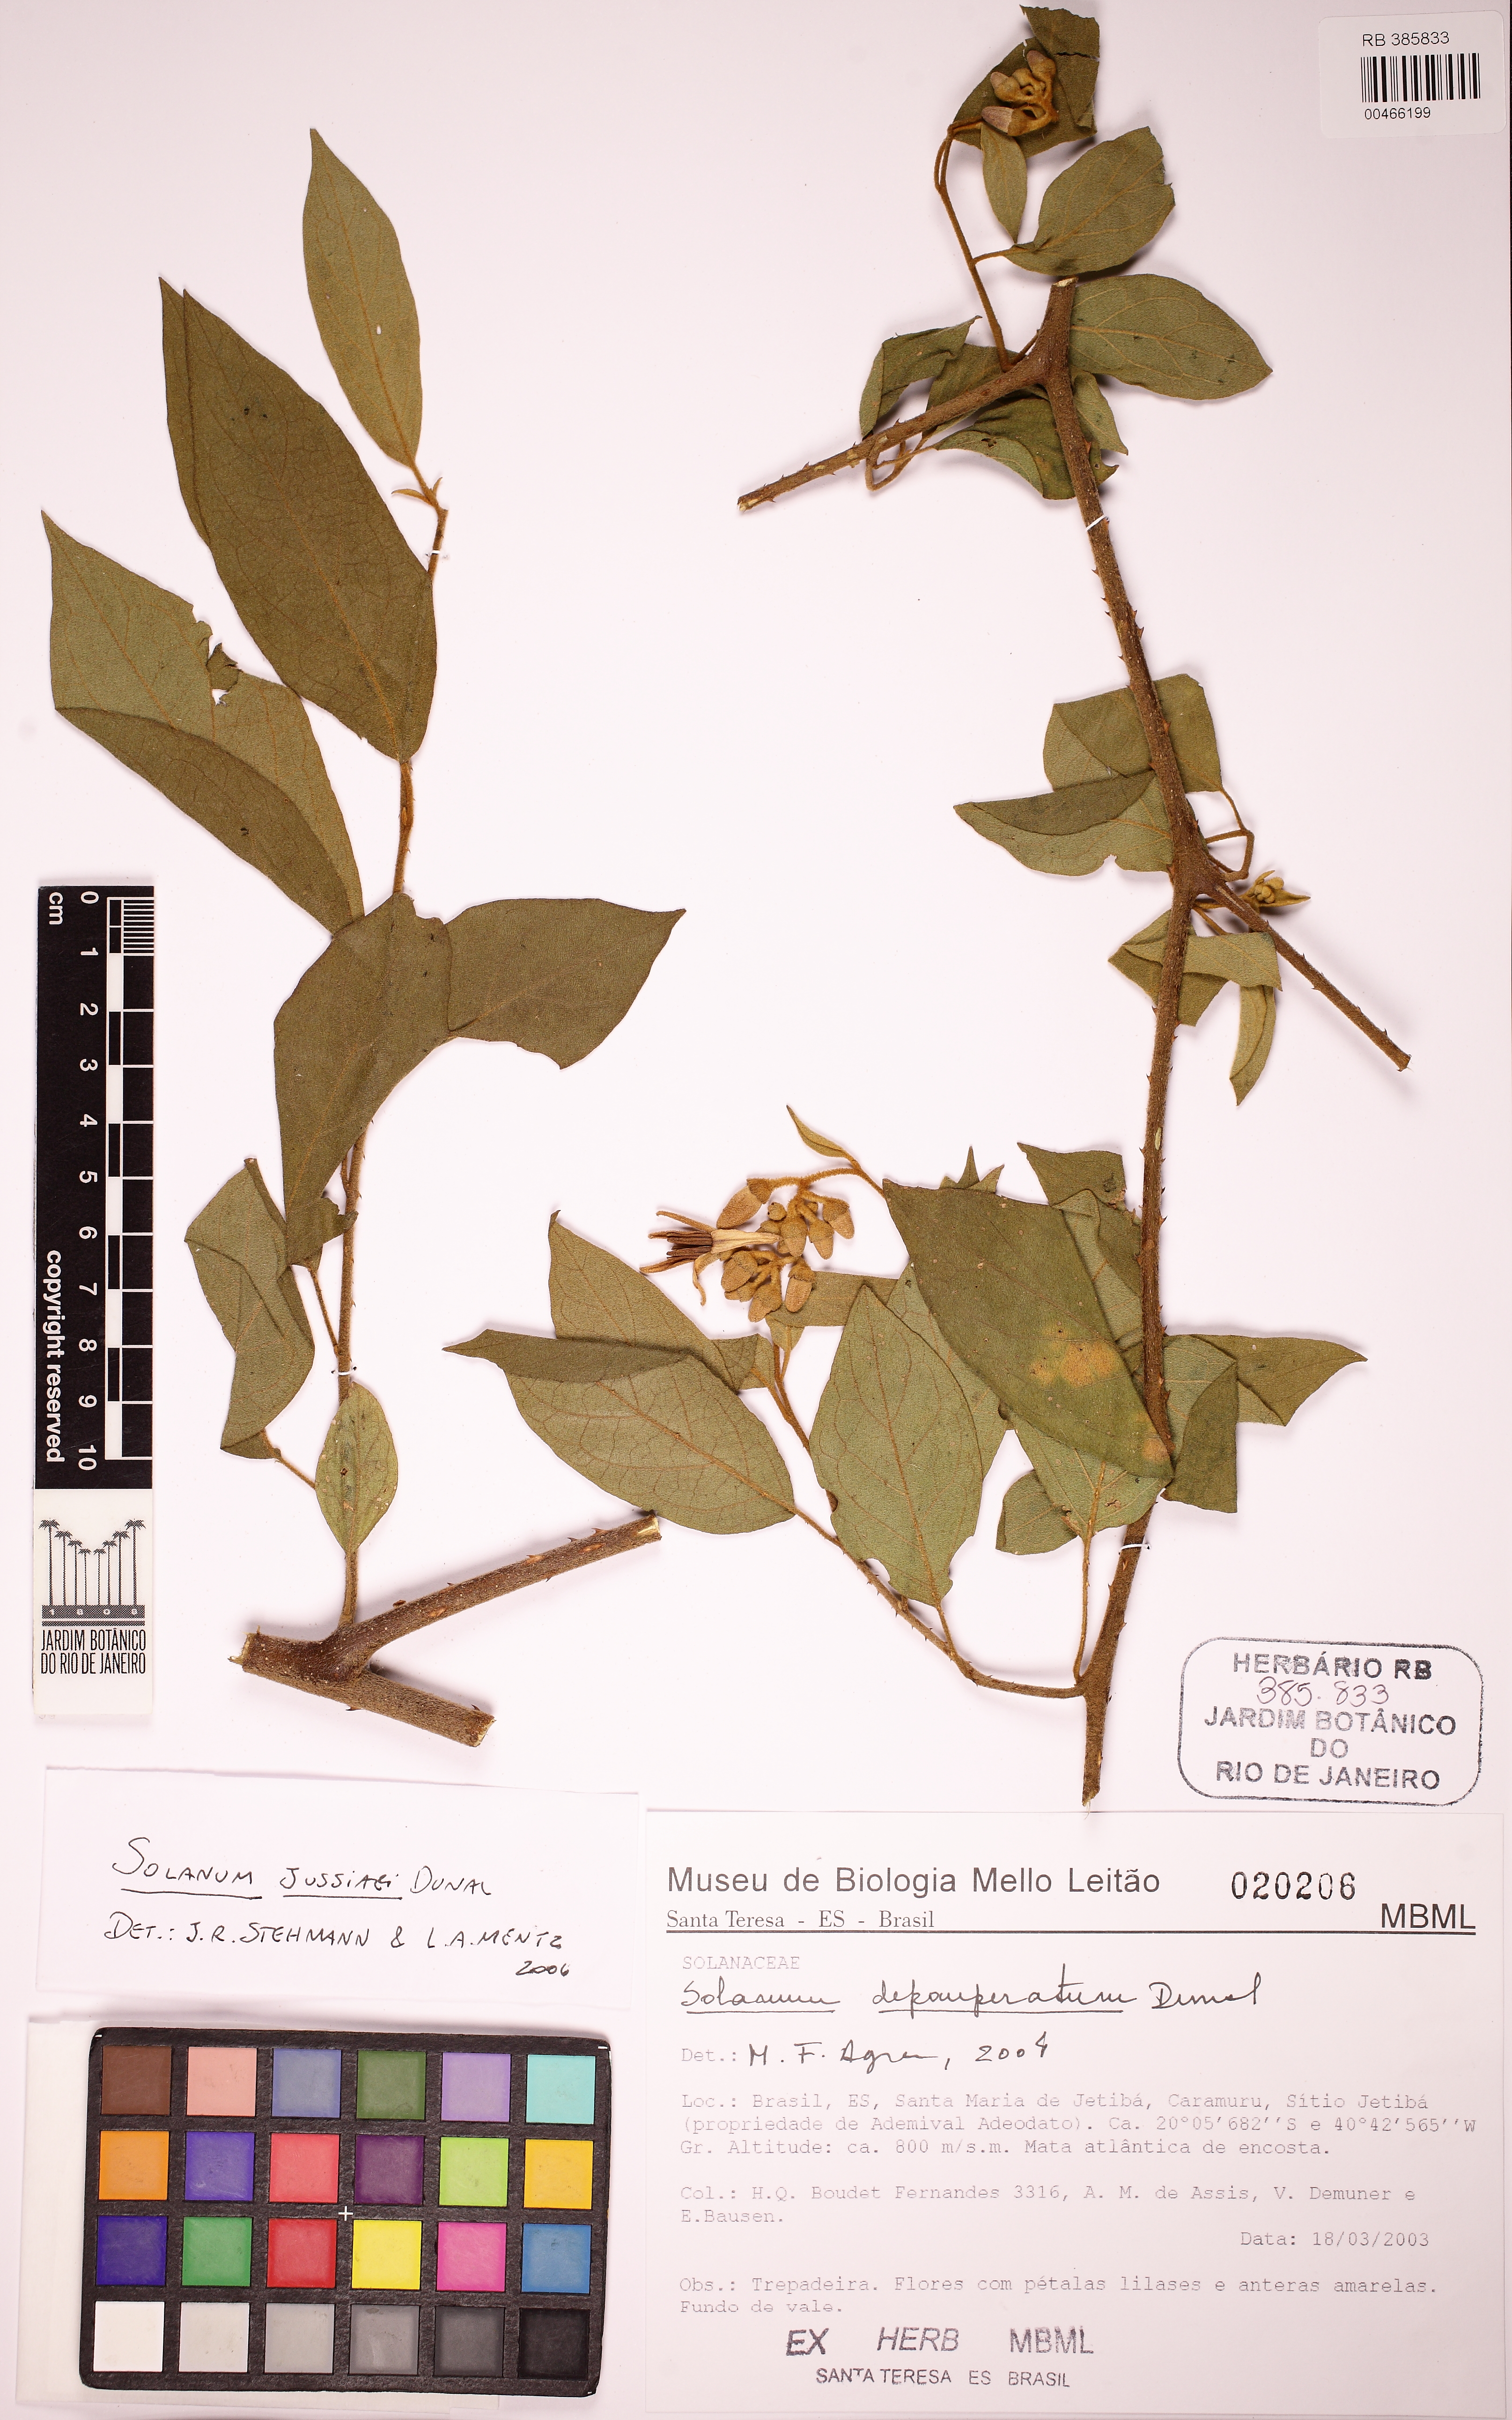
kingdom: Plantae
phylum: Tracheophyta
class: Magnoliopsida
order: Solanales
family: Solanaceae
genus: Solanum
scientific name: Solanum jussiaei
